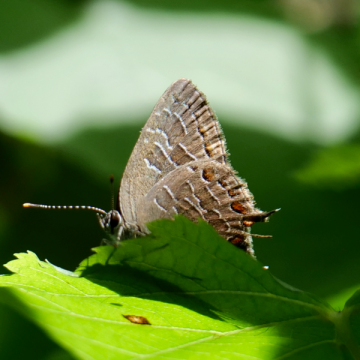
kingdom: Animalia
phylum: Arthropoda
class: Insecta
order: Lepidoptera
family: Lycaenidae
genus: Satyrium
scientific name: Satyrium liparops
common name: Striped Hairstreak
